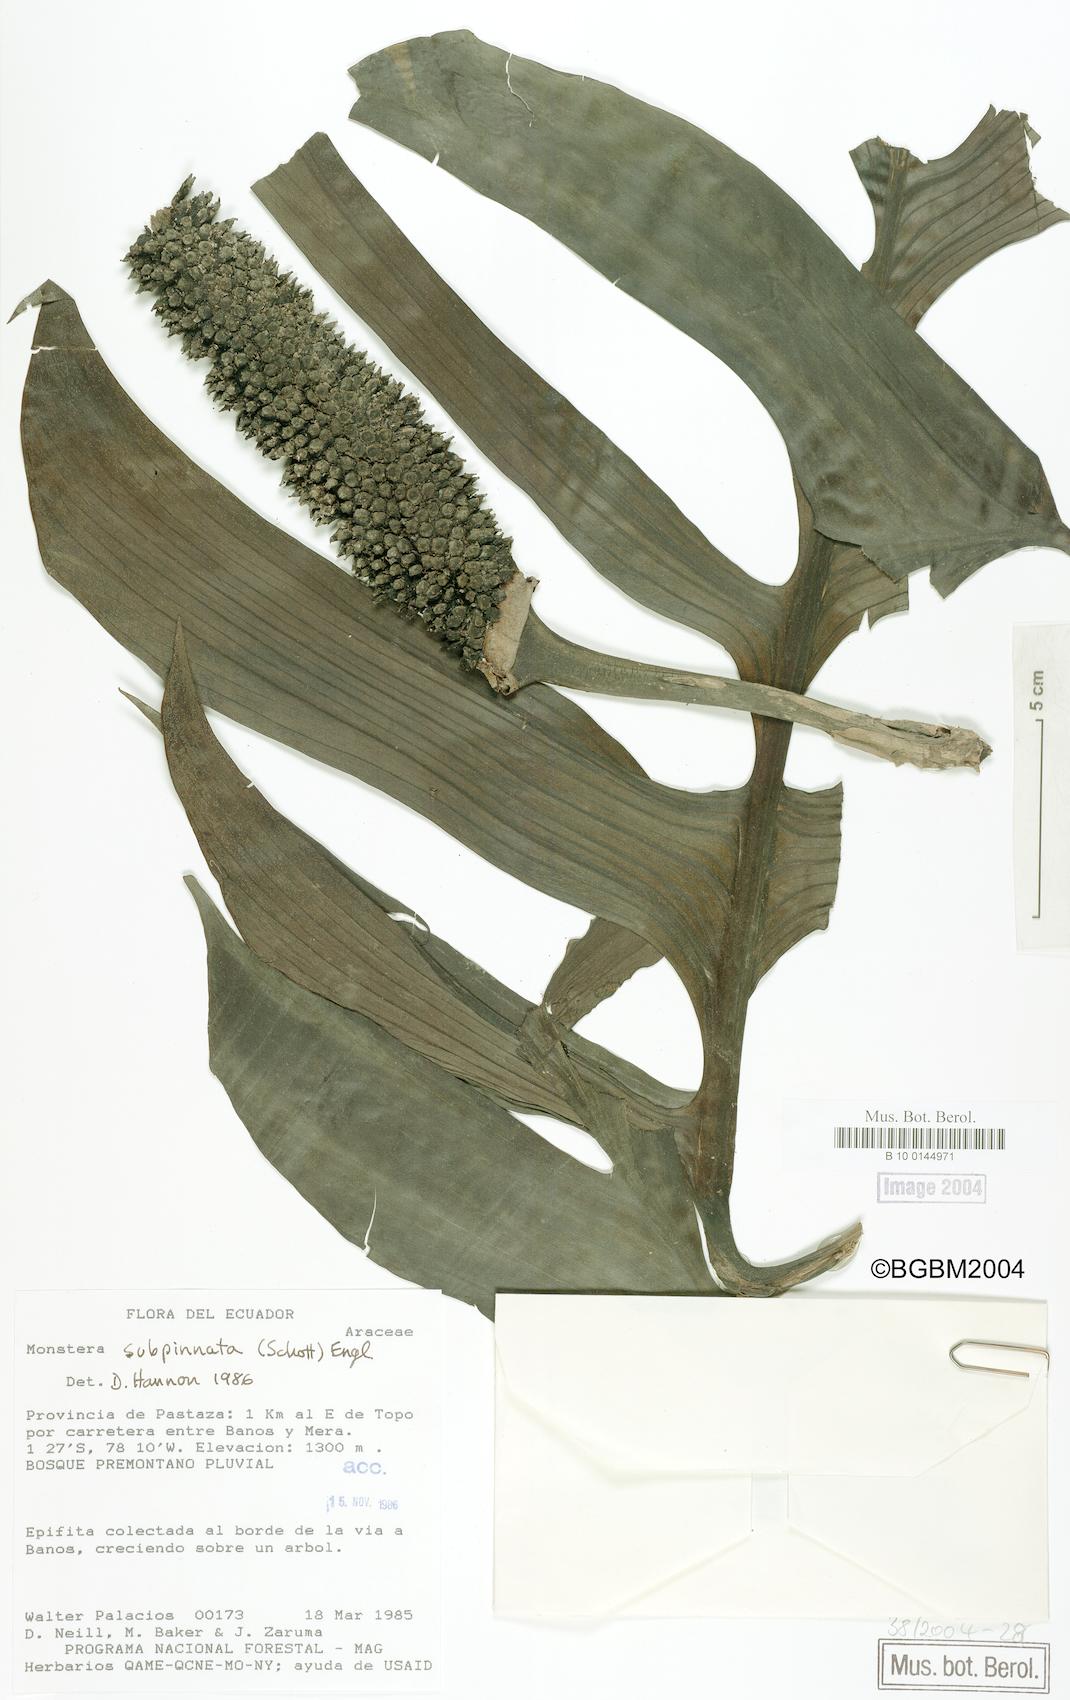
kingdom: Plantae
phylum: Tracheophyta
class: Liliopsida
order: Alismatales
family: Araceae
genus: Monstera
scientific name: Monstera subpinnata
